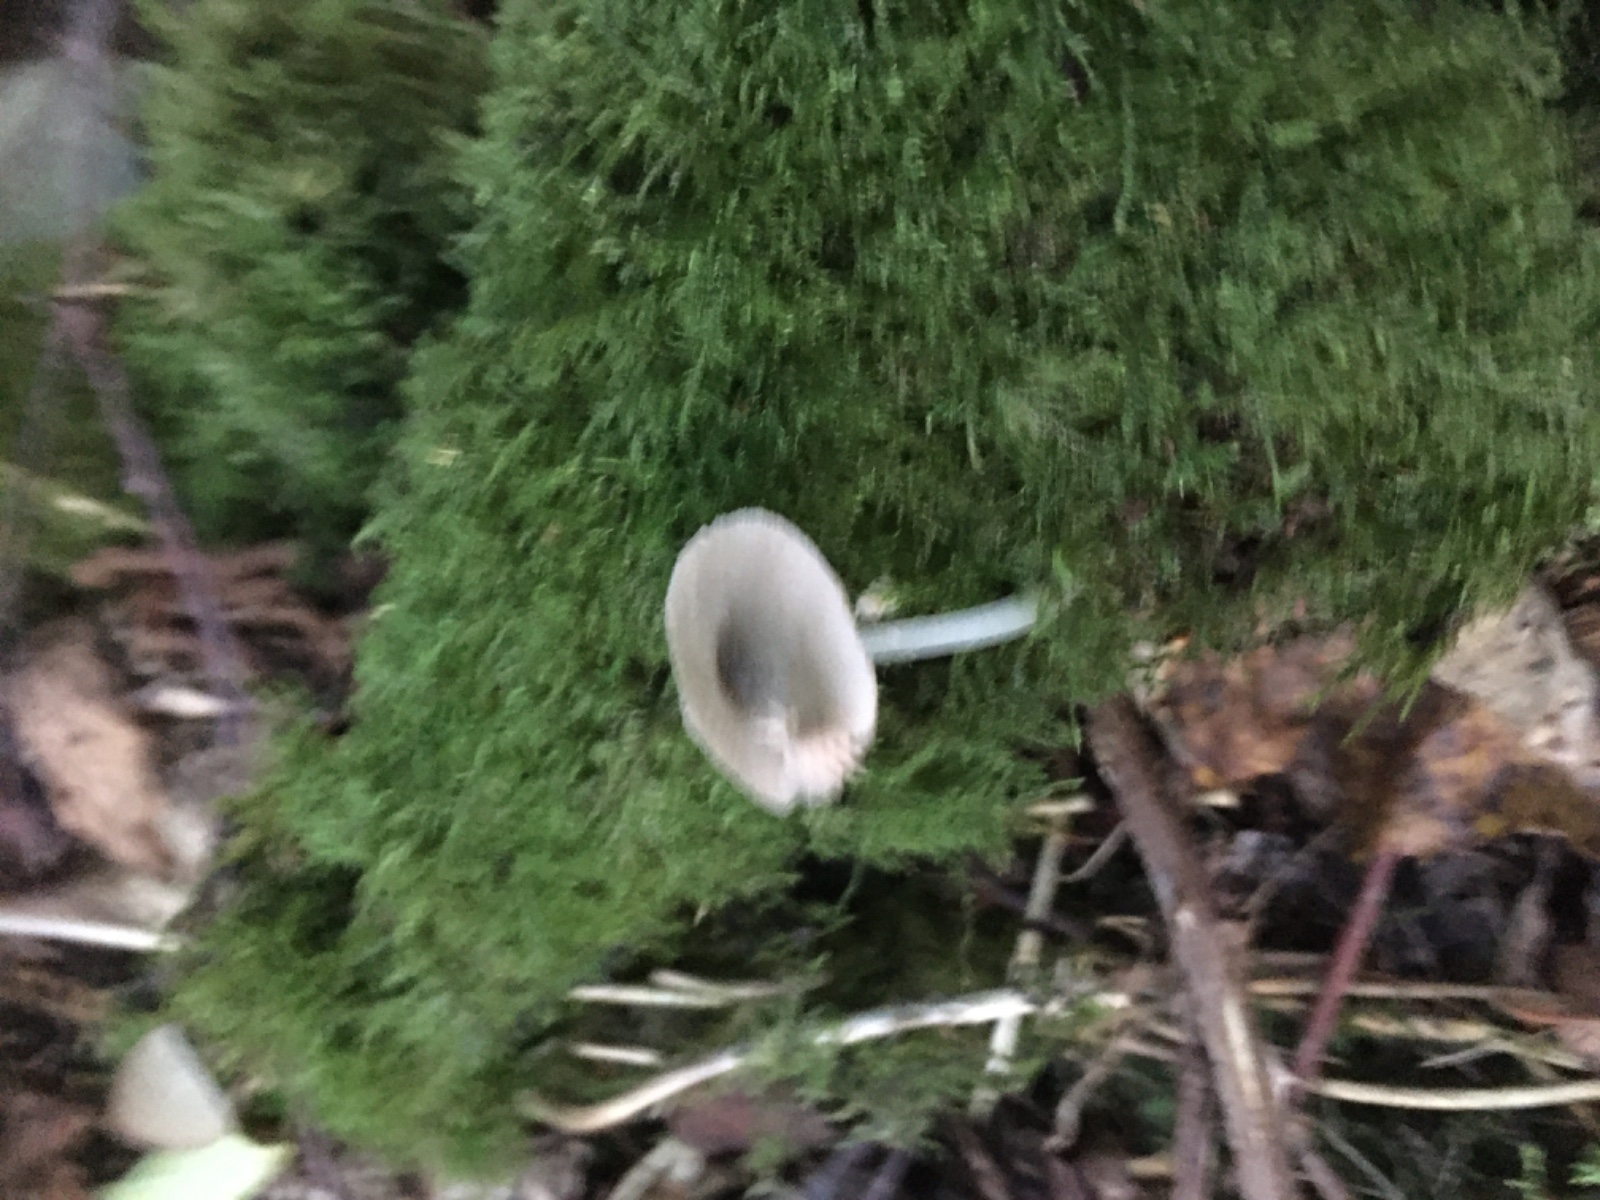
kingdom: Fungi
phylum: Basidiomycota
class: Agaricomycetes
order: Agaricales
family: Pluteaceae
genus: Pluteus
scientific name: Pluteus salicinus
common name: stiv skærmhat
